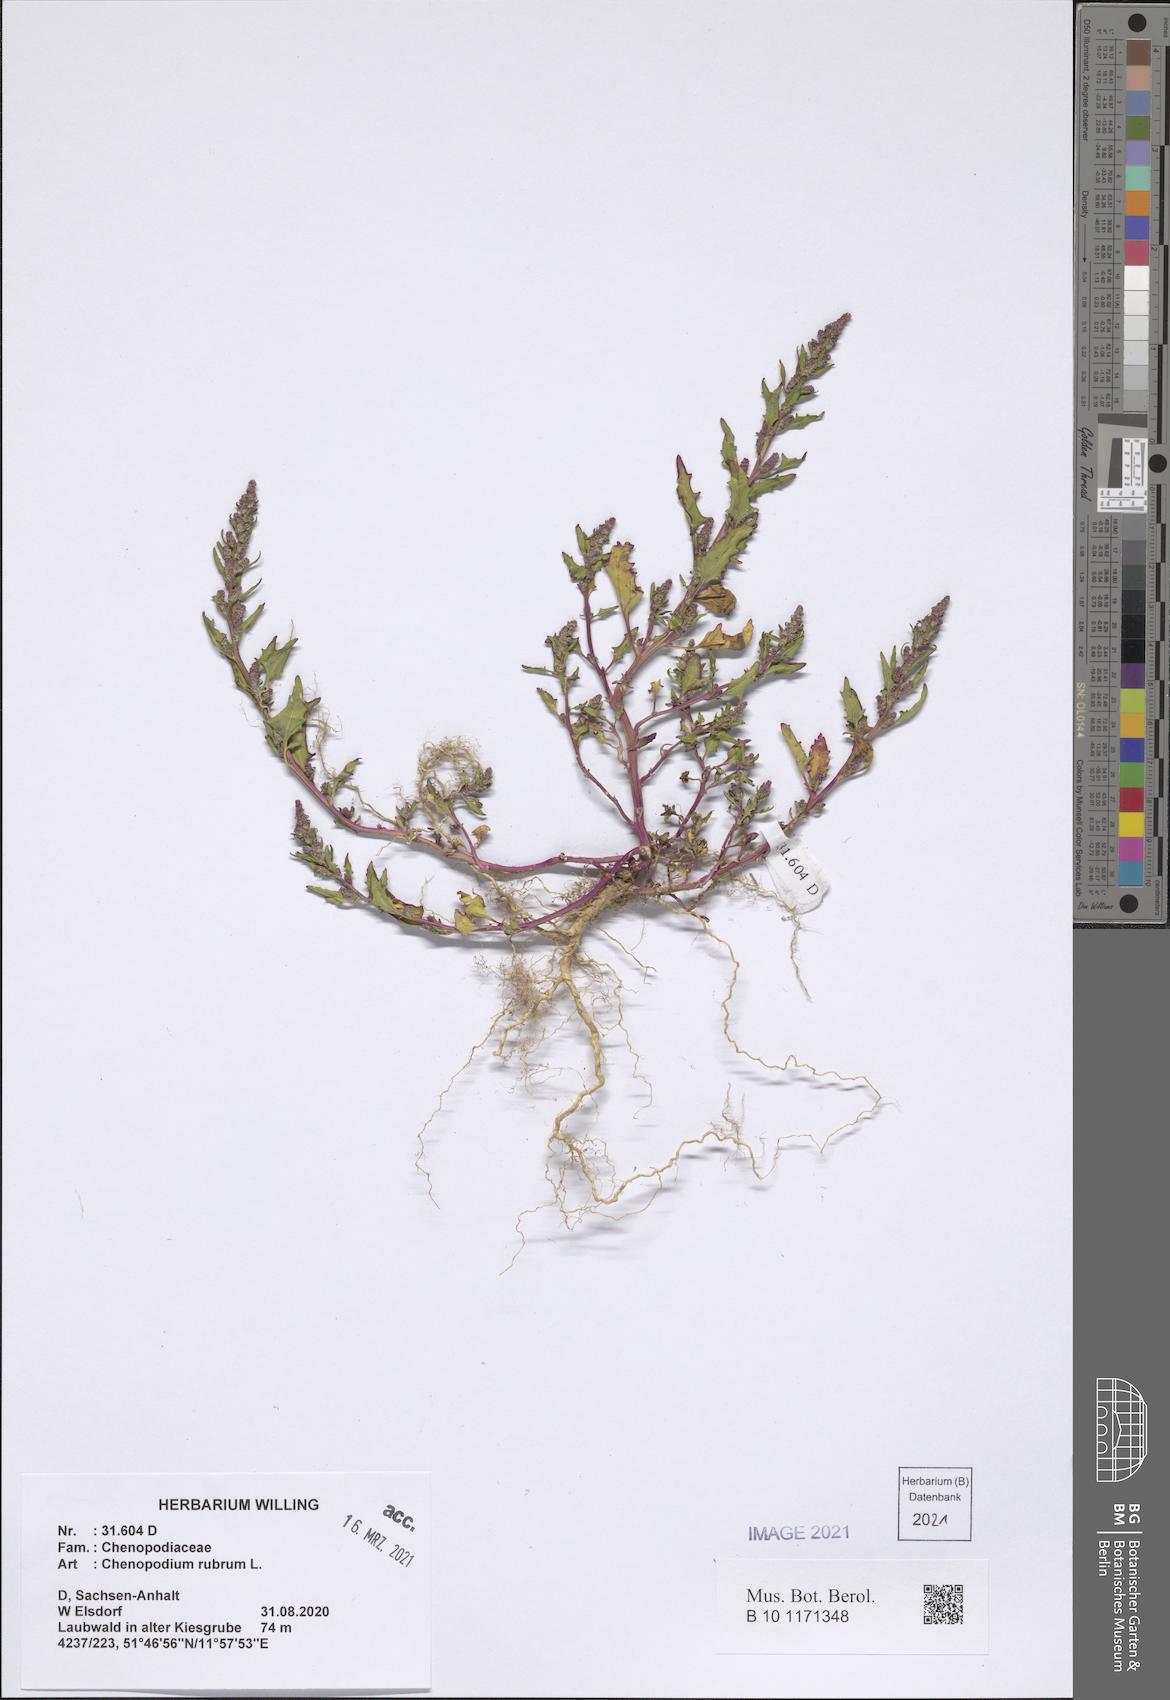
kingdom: Plantae
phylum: Tracheophyta
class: Magnoliopsida
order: Caryophyllales
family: Amaranthaceae
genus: Oxybasis
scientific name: Oxybasis rubra
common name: Red goosefoot
